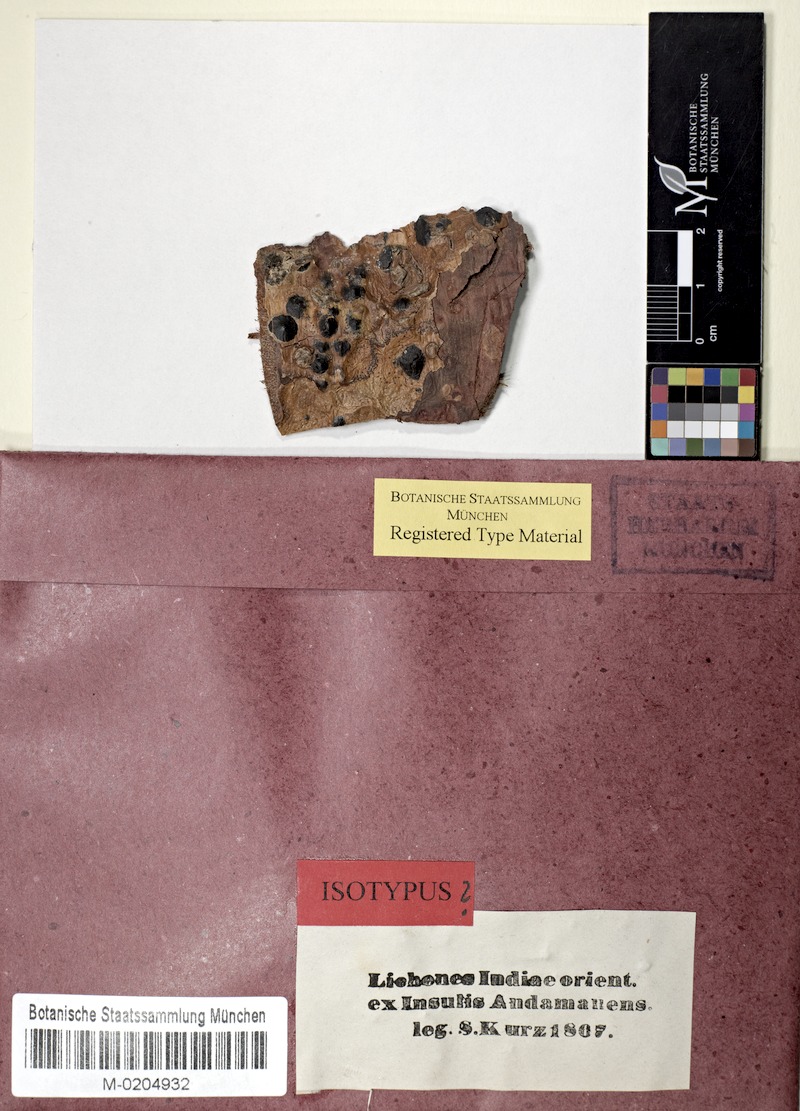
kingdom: Fungi
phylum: Ascomycota
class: Eurotiomycetes
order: Pyrenulales
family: Pyrenulaceae
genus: Anthracothecium
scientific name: Anthracothecium
